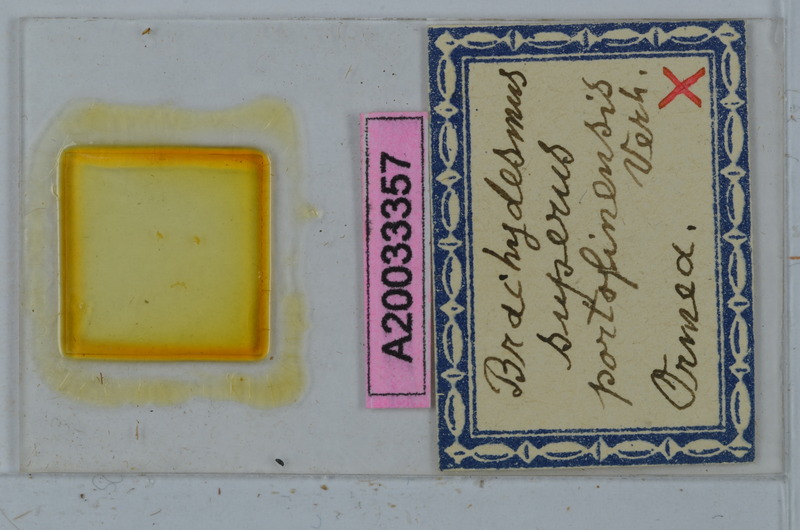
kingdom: Animalia
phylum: Arthropoda
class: Diplopoda
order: Polydesmida
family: Polydesmidae
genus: Brachydesmus
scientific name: Brachydesmus superus
